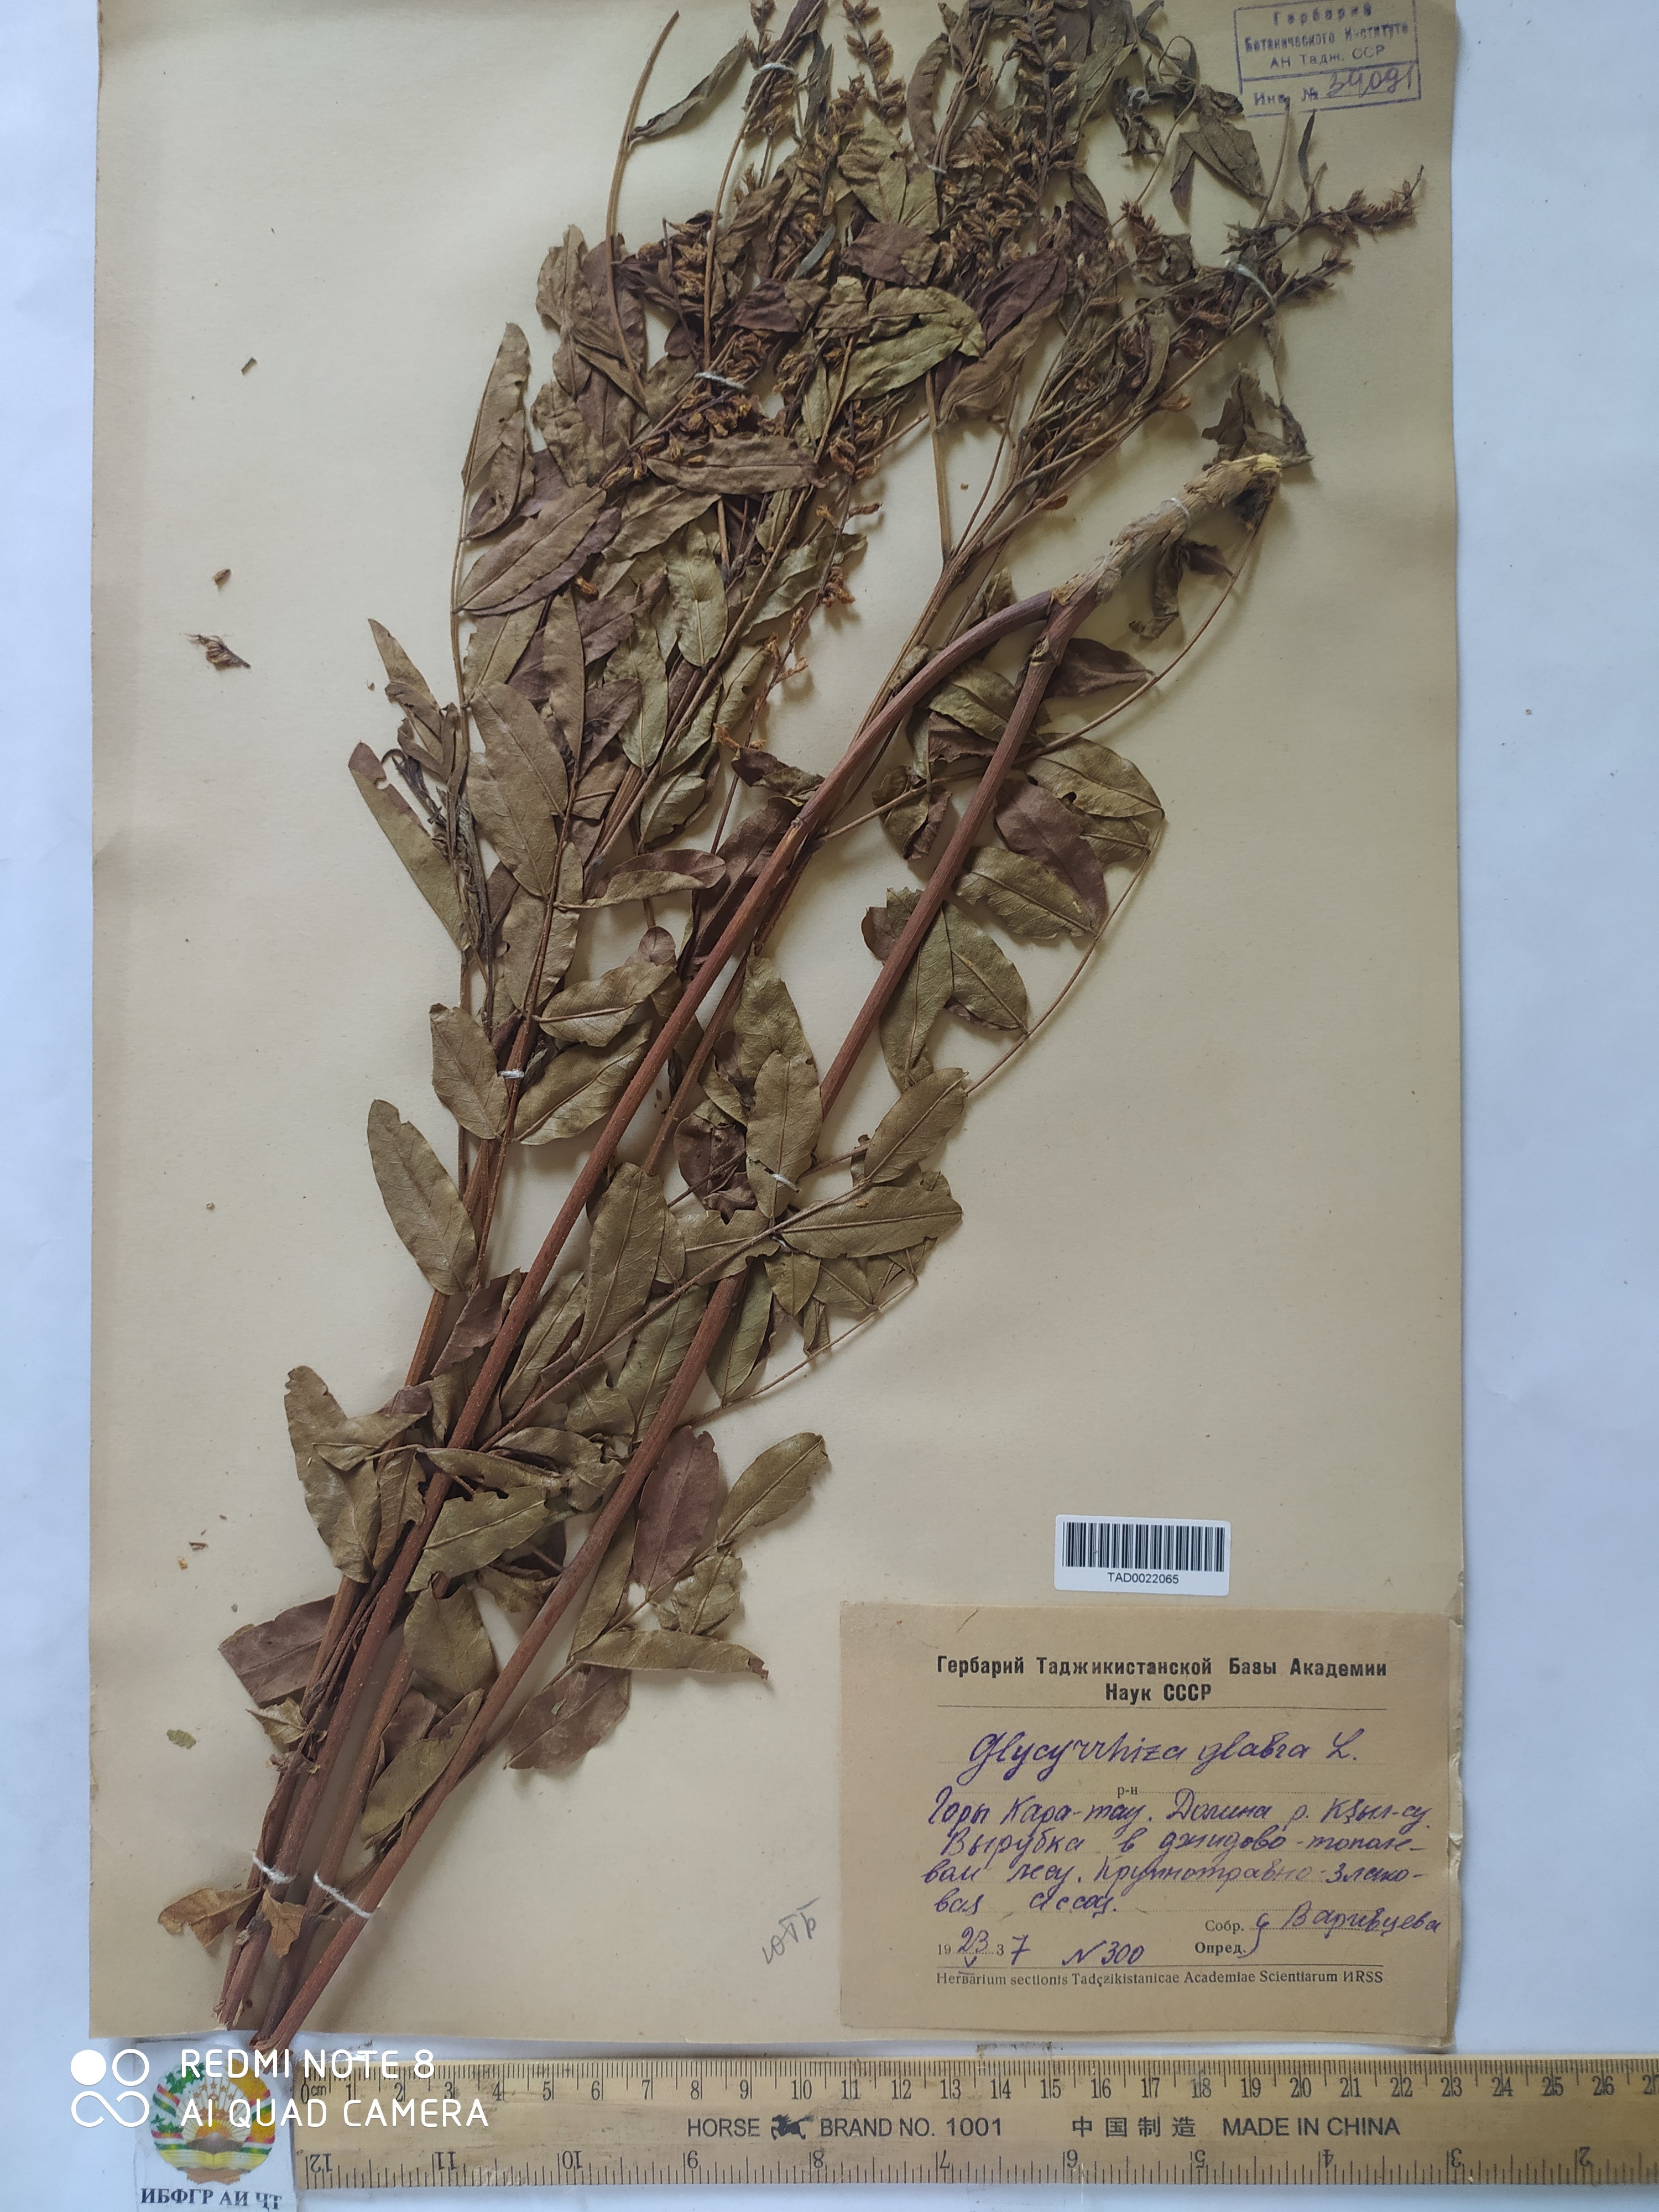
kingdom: Plantae
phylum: Tracheophyta
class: Magnoliopsida
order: Fabales
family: Fabaceae
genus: Glycyrrhiza
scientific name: Glycyrrhiza glabra
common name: Liquorice
